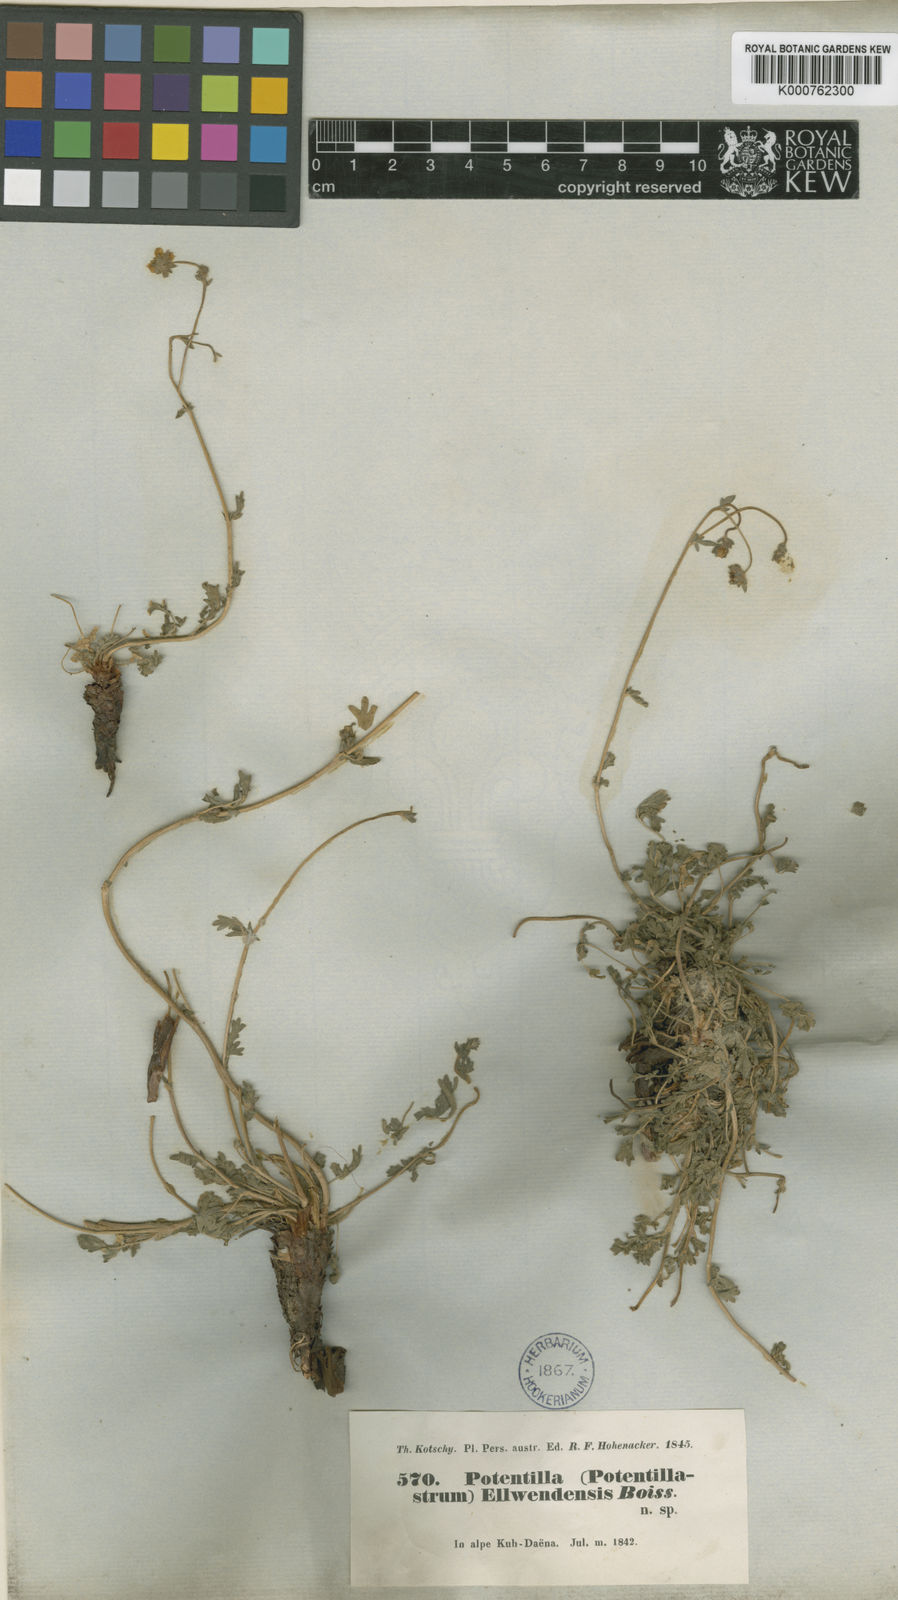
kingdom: Plantae
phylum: Tracheophyta
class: Magnoliopsida
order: Rosales
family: Rosaceae
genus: Potentilla
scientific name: Potentilla
